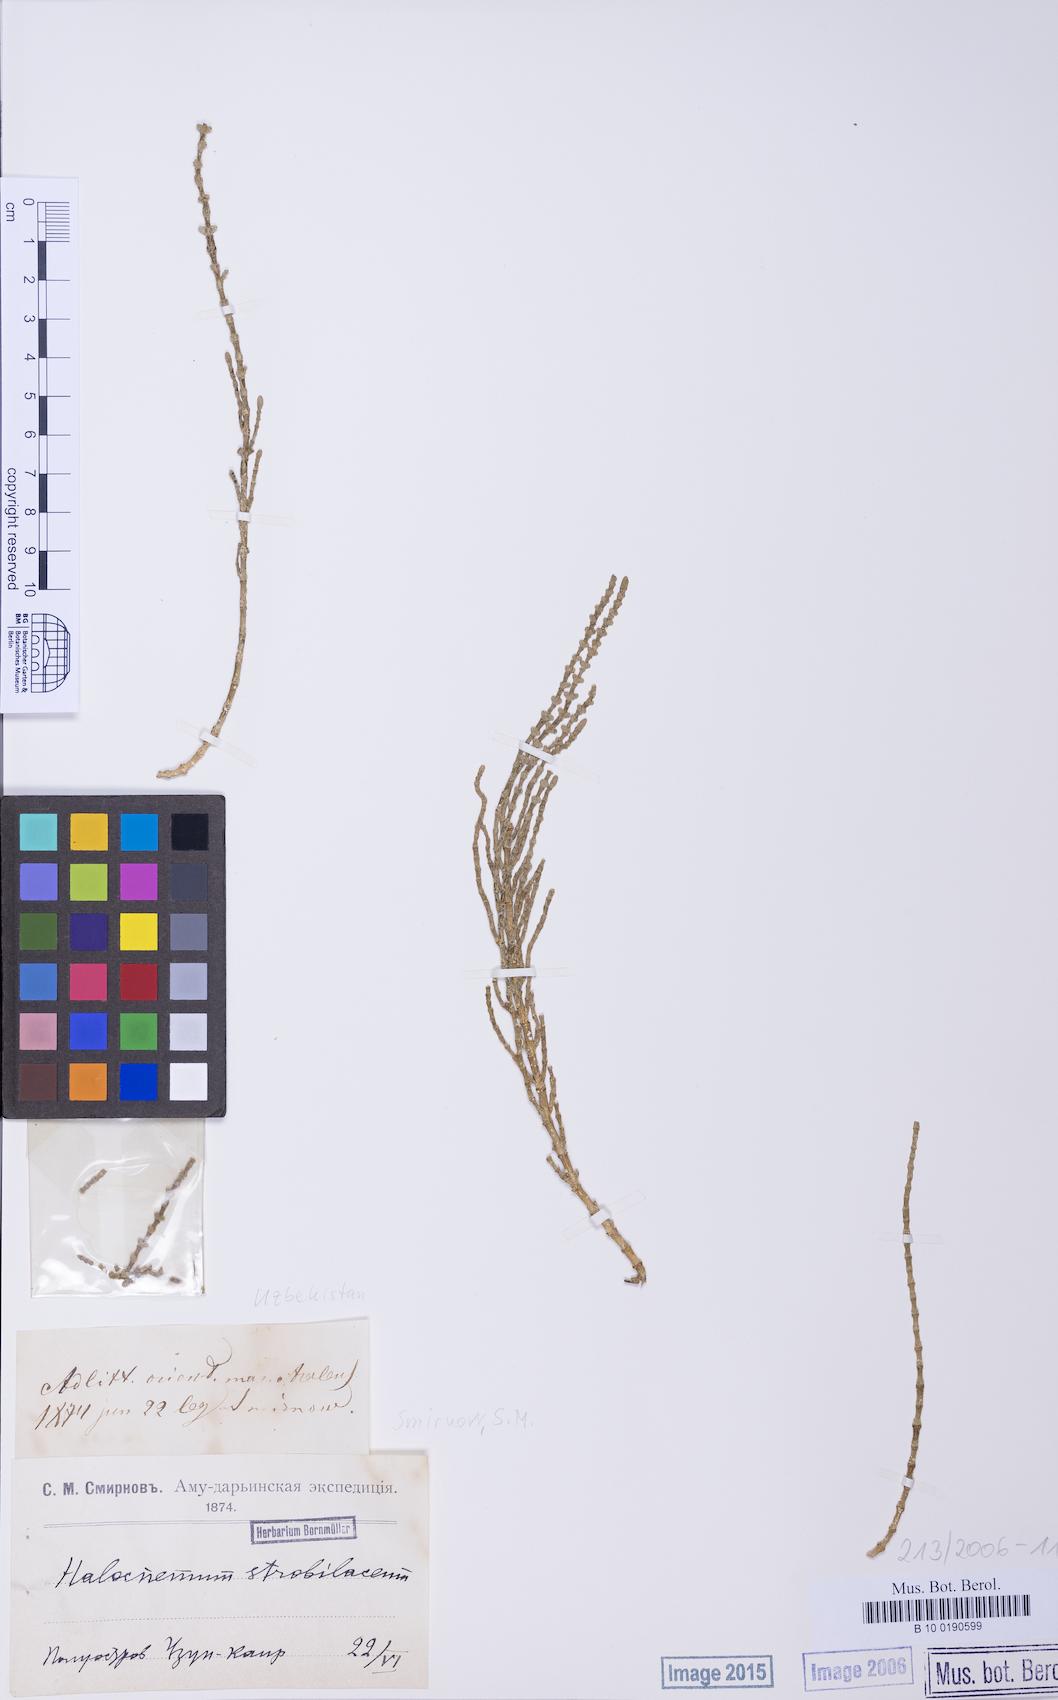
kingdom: Plantae
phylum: Tracheophyta
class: Magnoliopsida
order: Caryophyllales
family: Amaranthaceae
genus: Halocnemum
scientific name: Halocnemum strobilaceum
